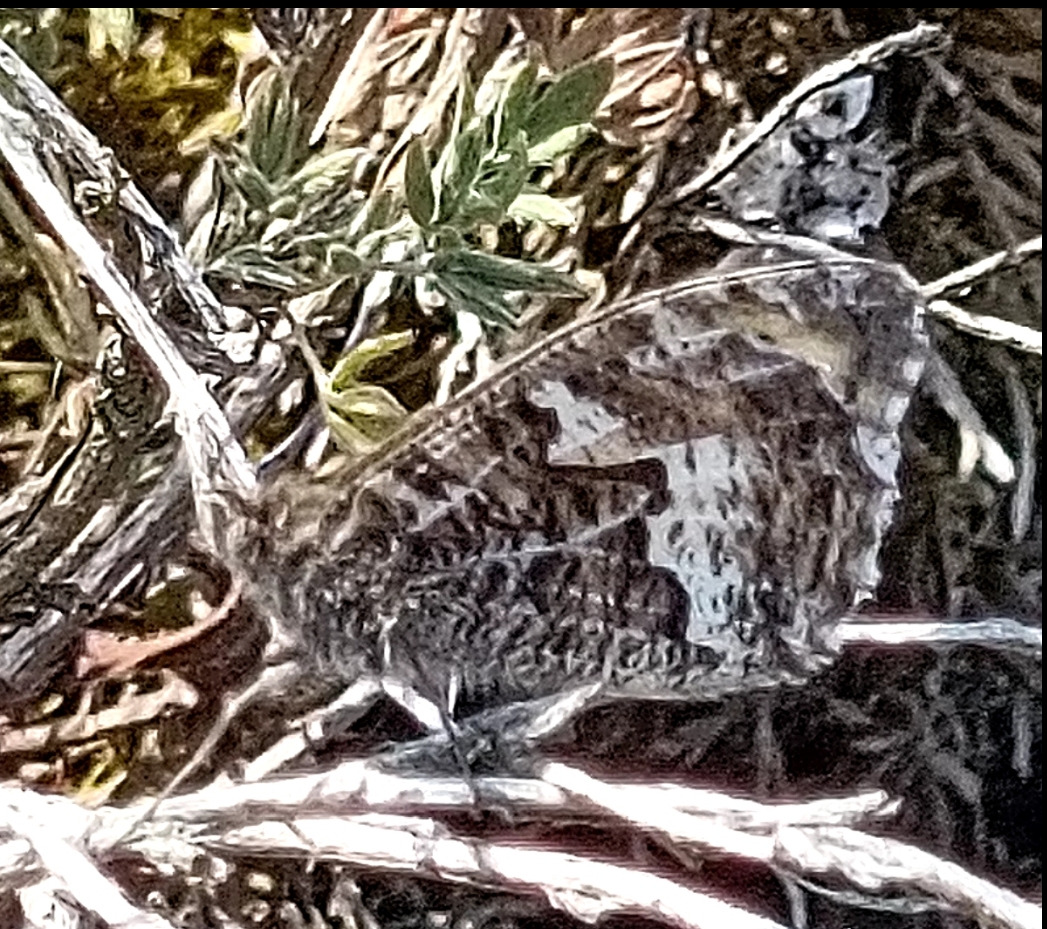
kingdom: Animalia
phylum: Arthropoda
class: Insecta
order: Lepidoptera
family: Nymphalidae
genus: Hipparchia
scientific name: Hipparchia semele
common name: Sandrandøje
